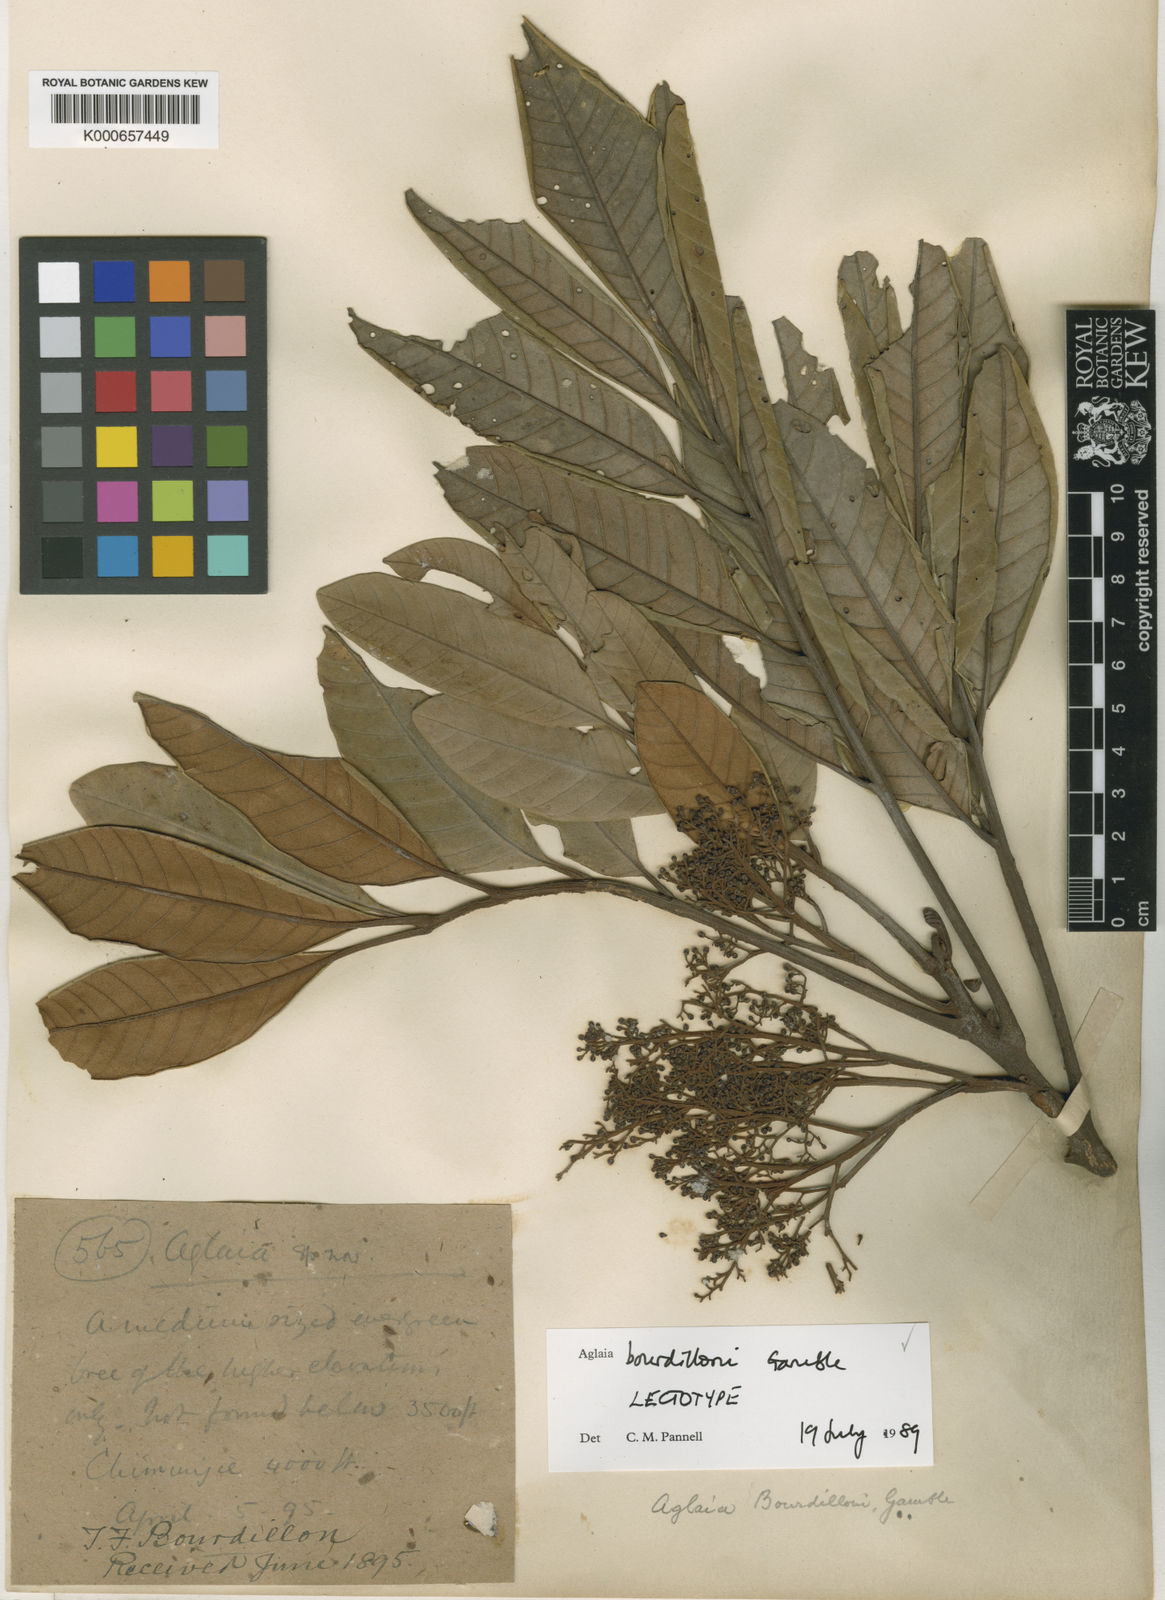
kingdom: Plantae
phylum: Tracheophyta
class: Magnoliopsida
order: Sapindales
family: Meliaceae
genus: Aglaia
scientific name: Aglaia elaeagnoidea
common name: Droopyleaf
